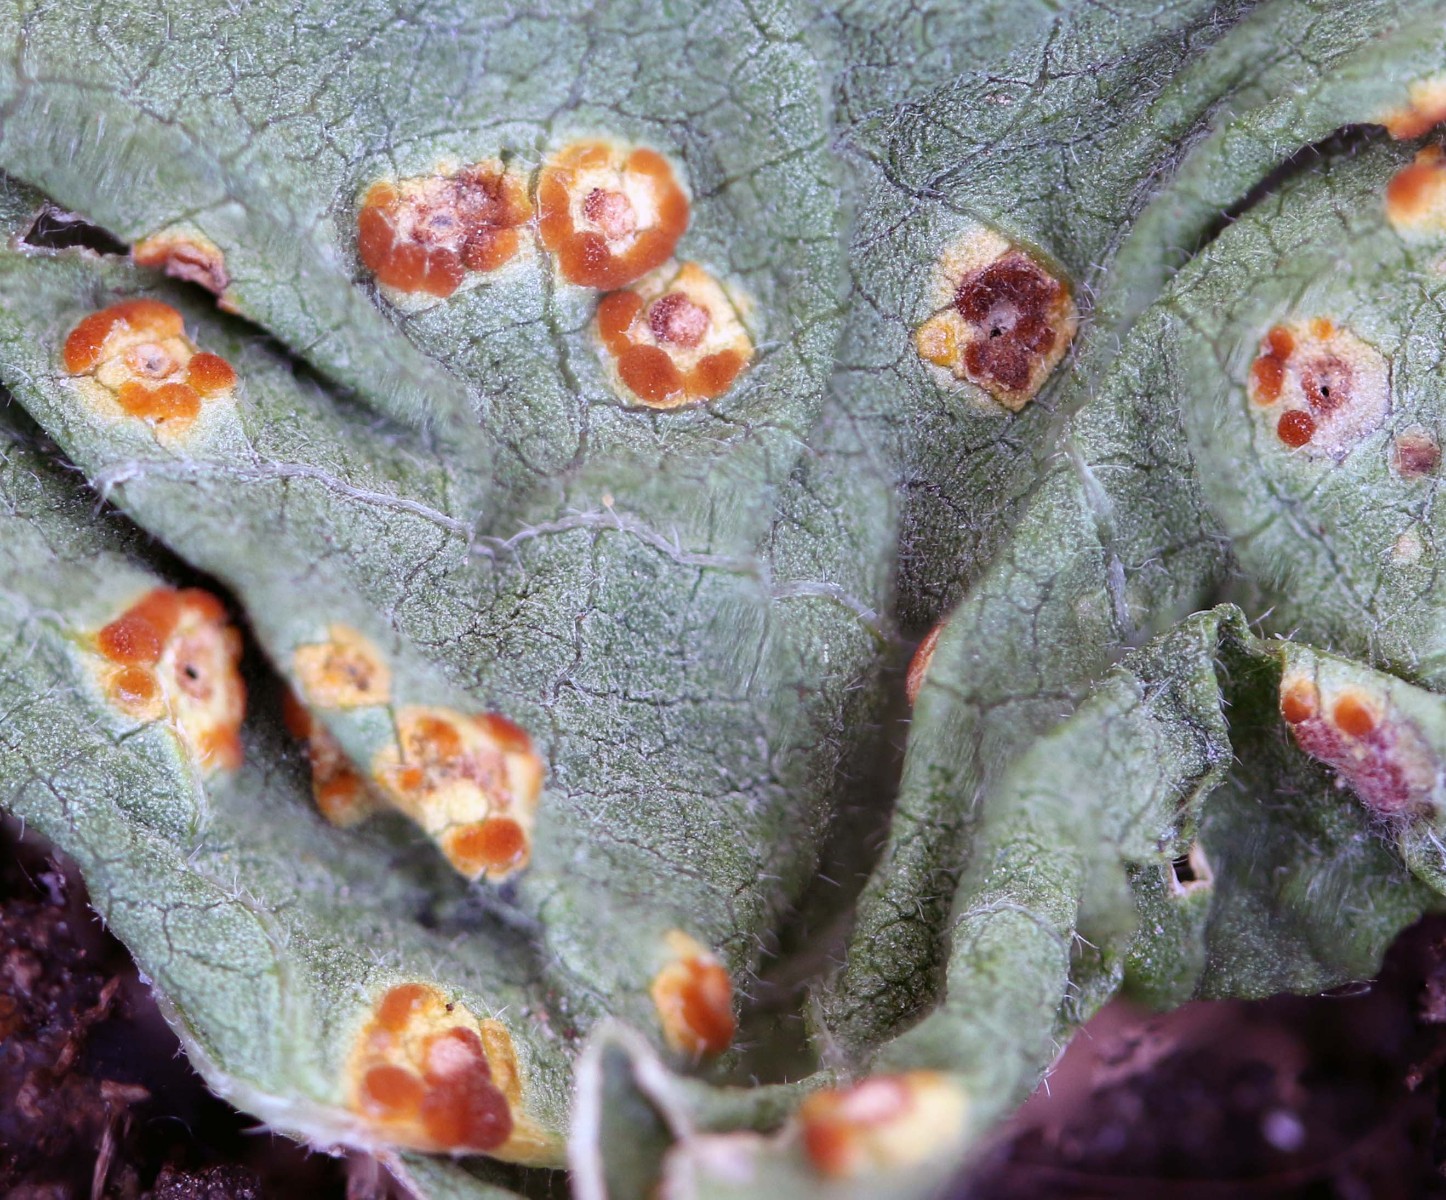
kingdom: Fungi
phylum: Basidiomycota
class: Pucciniomycetes
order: Pucciniales
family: Pucciniaceae
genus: Puccinia
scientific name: Puccinia malvacearum
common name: stokrose-tvecellerust
